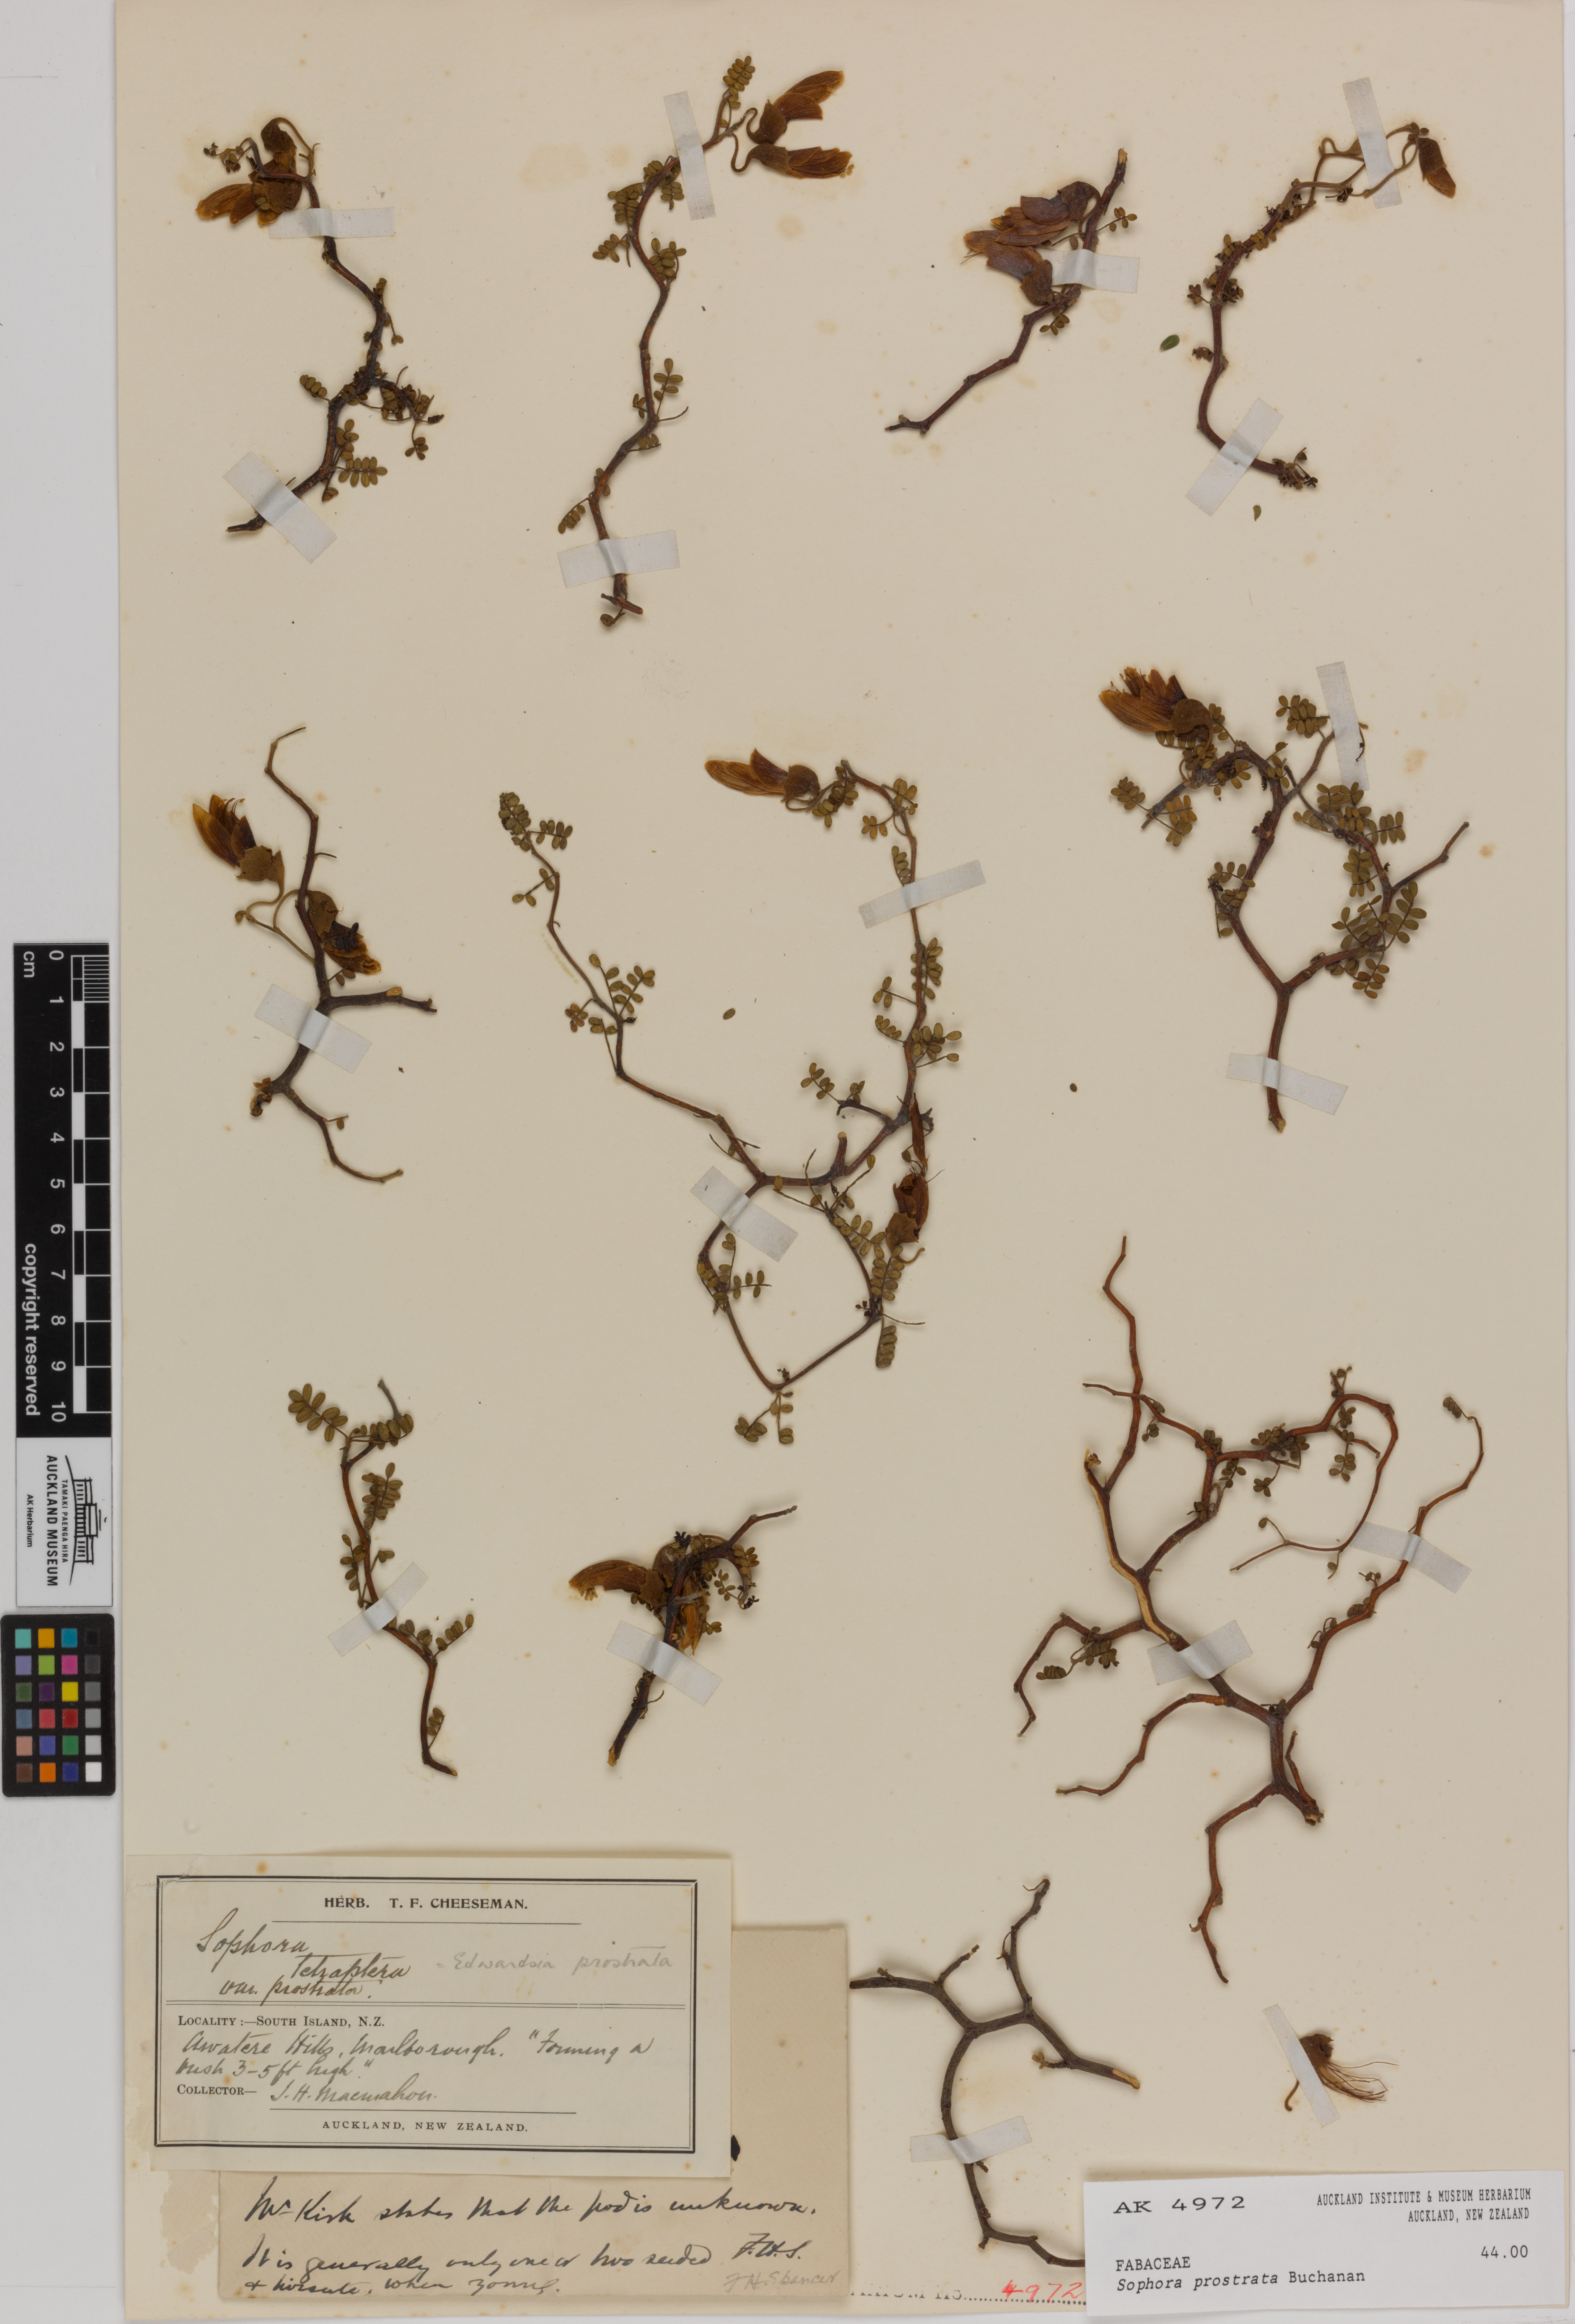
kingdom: Plantae
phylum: Tracheophyta
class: Magnoliopsida
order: Fabales
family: Fabaceae
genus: Sophora
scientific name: Sophora prostrata
